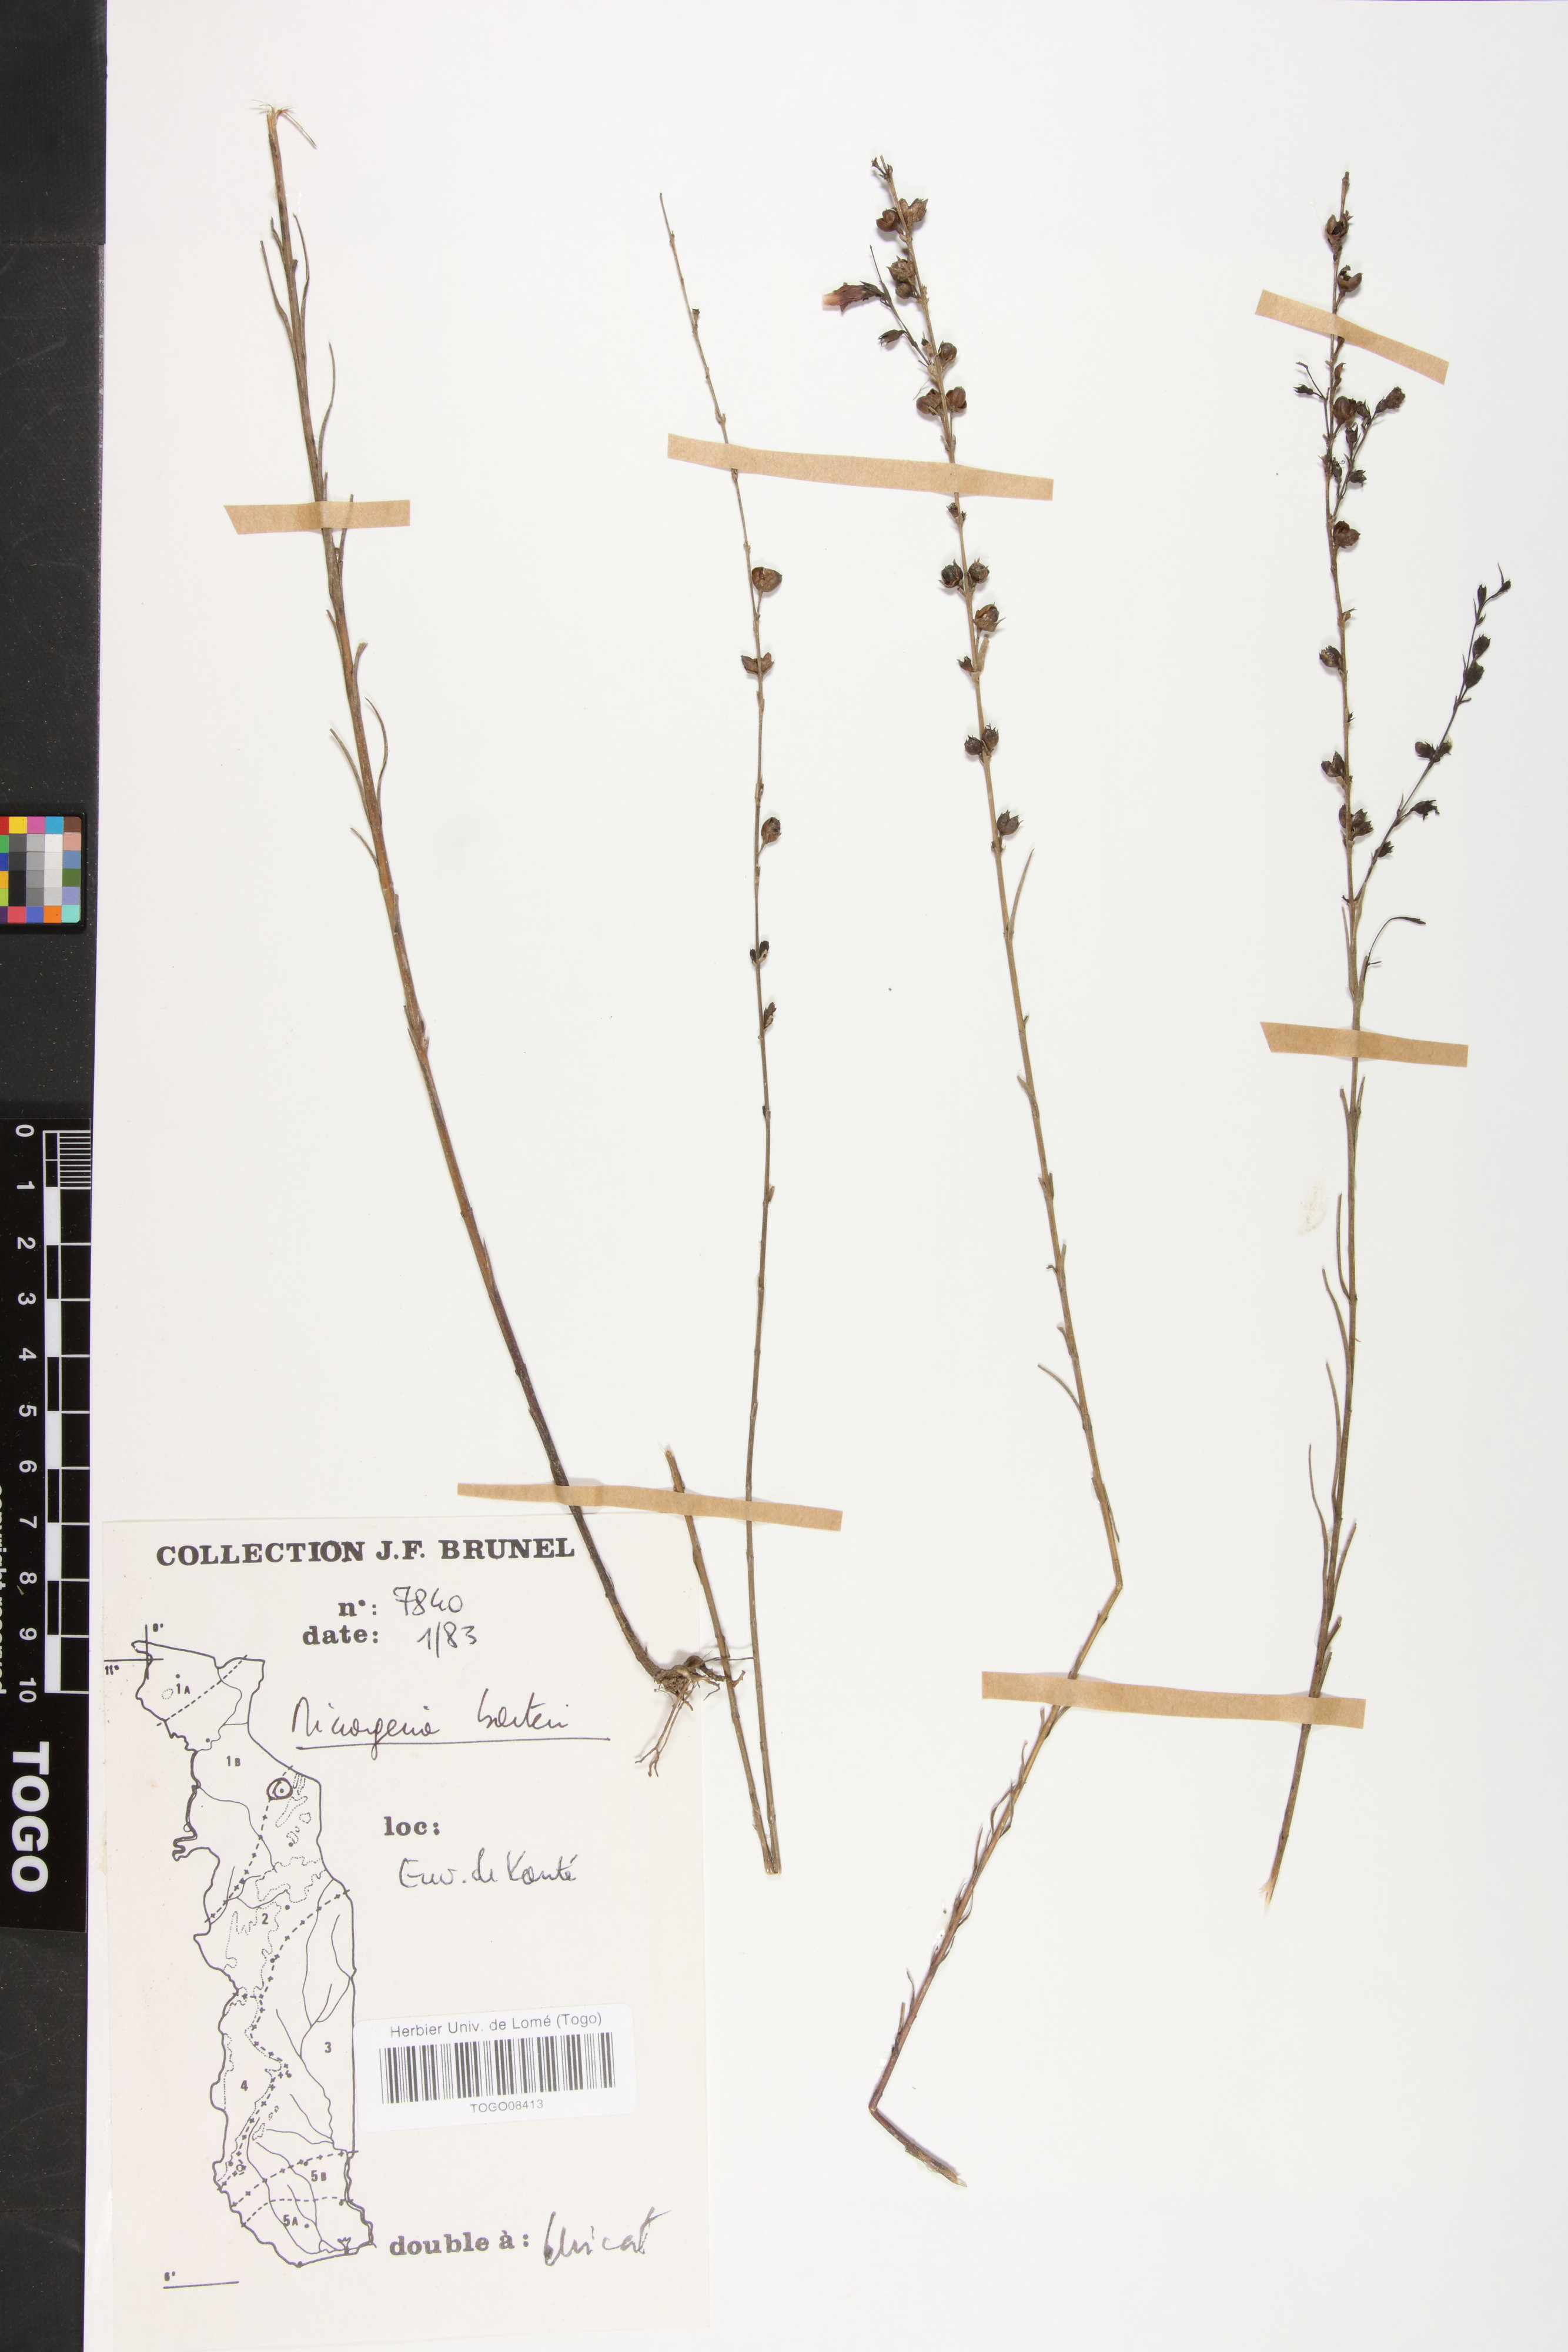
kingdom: Plantae
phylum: Tracheophyta
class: Magnoliopsida
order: Lamiales
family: Orobanchaceae
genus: Micrargeria
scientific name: Micrargeria filiformis
